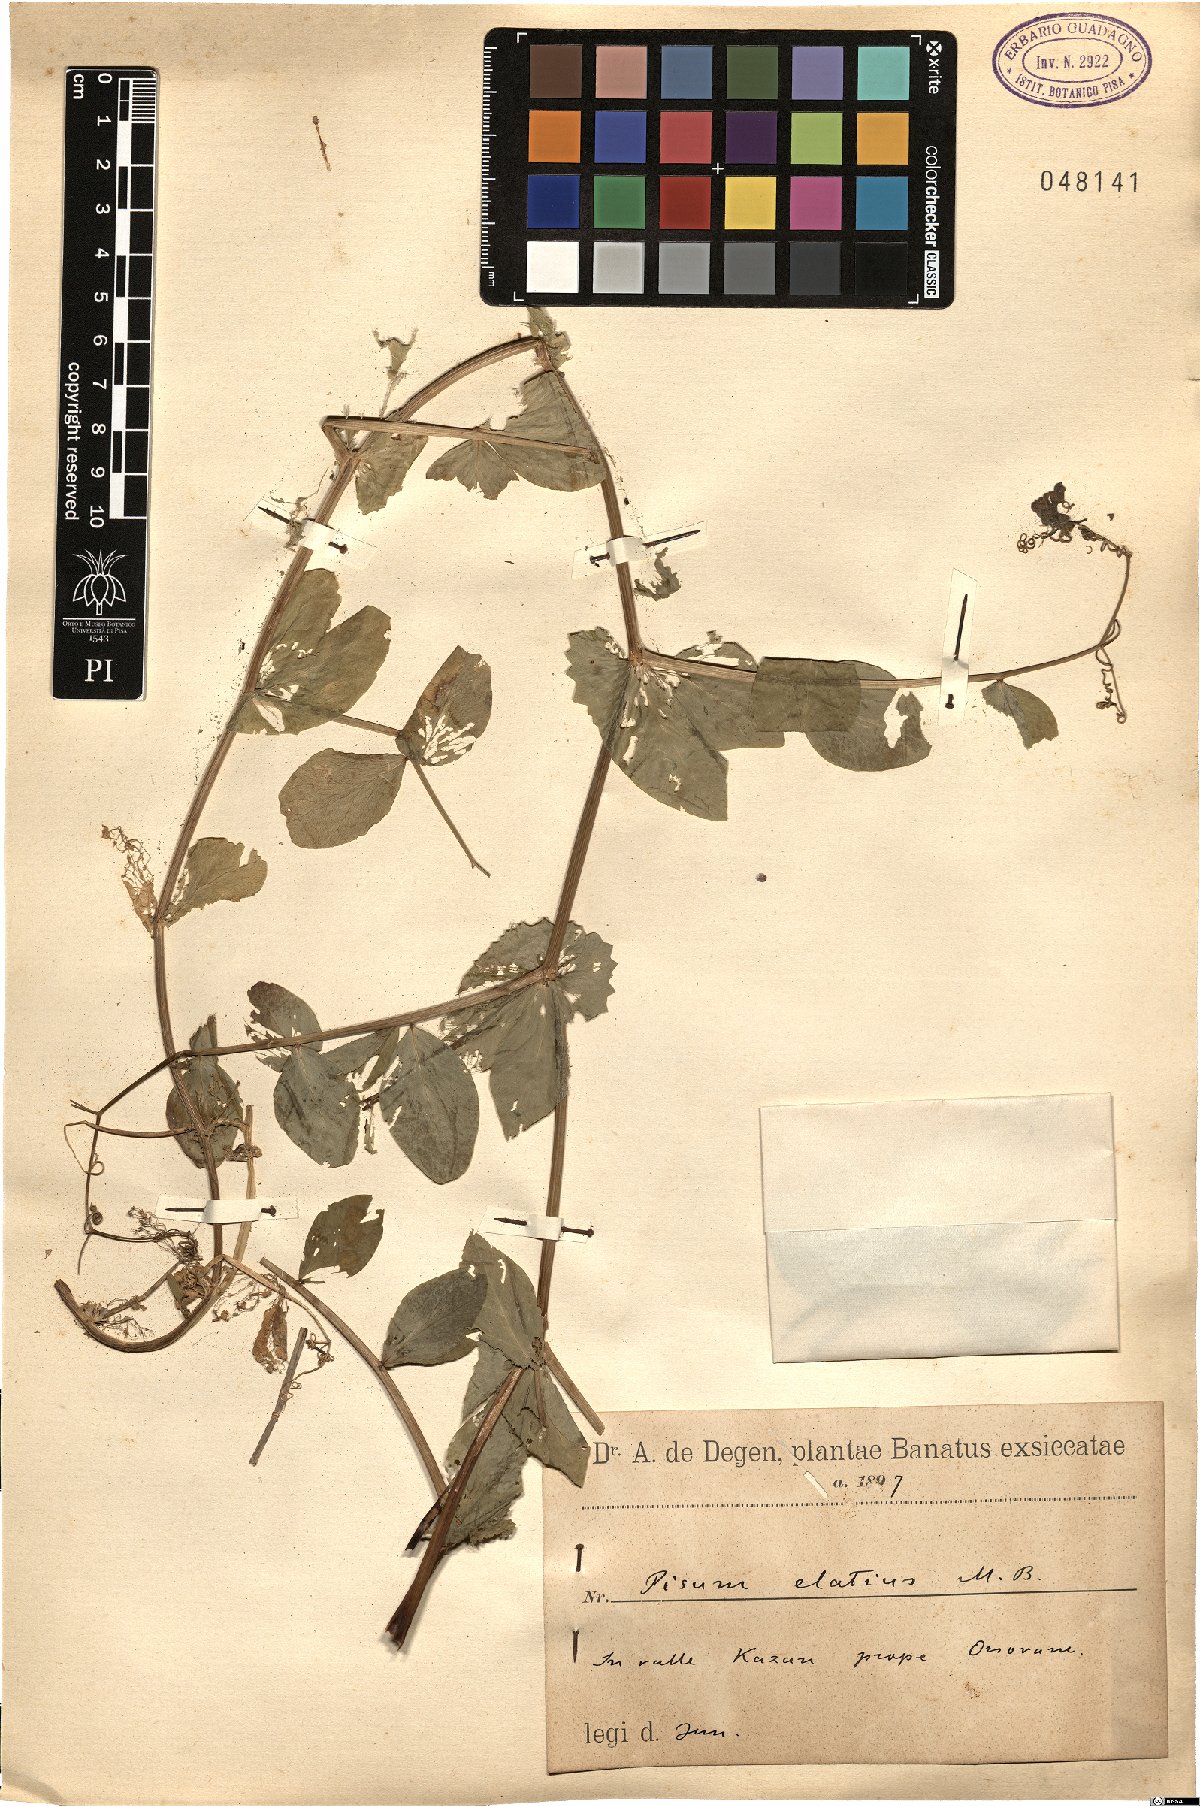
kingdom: Plantae
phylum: Tracheophyta
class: Magnoliopsida
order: Fabales
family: Fabaceae
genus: Lathyrus
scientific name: Lathyrus oleraceus
